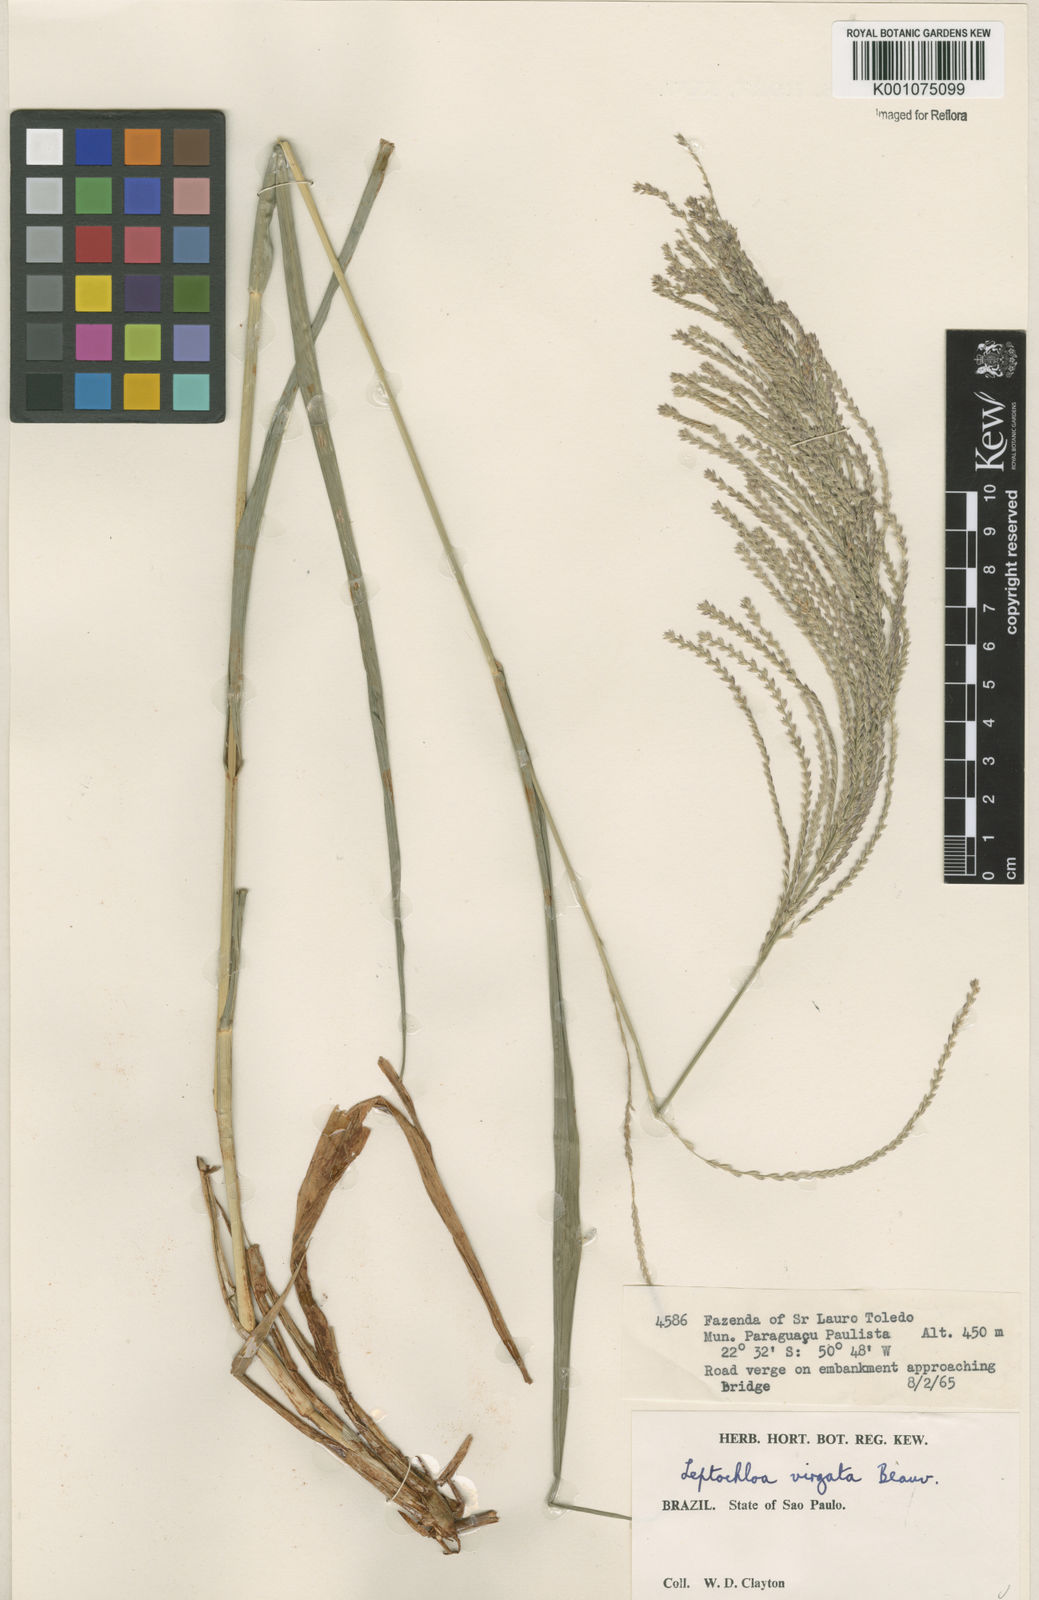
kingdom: Plantae
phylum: Tracheophyta
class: Liliopsida
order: Poales
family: Poaceae
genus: Leptochloa
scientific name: Leptochloa virgata
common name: Tropical sprangletop
